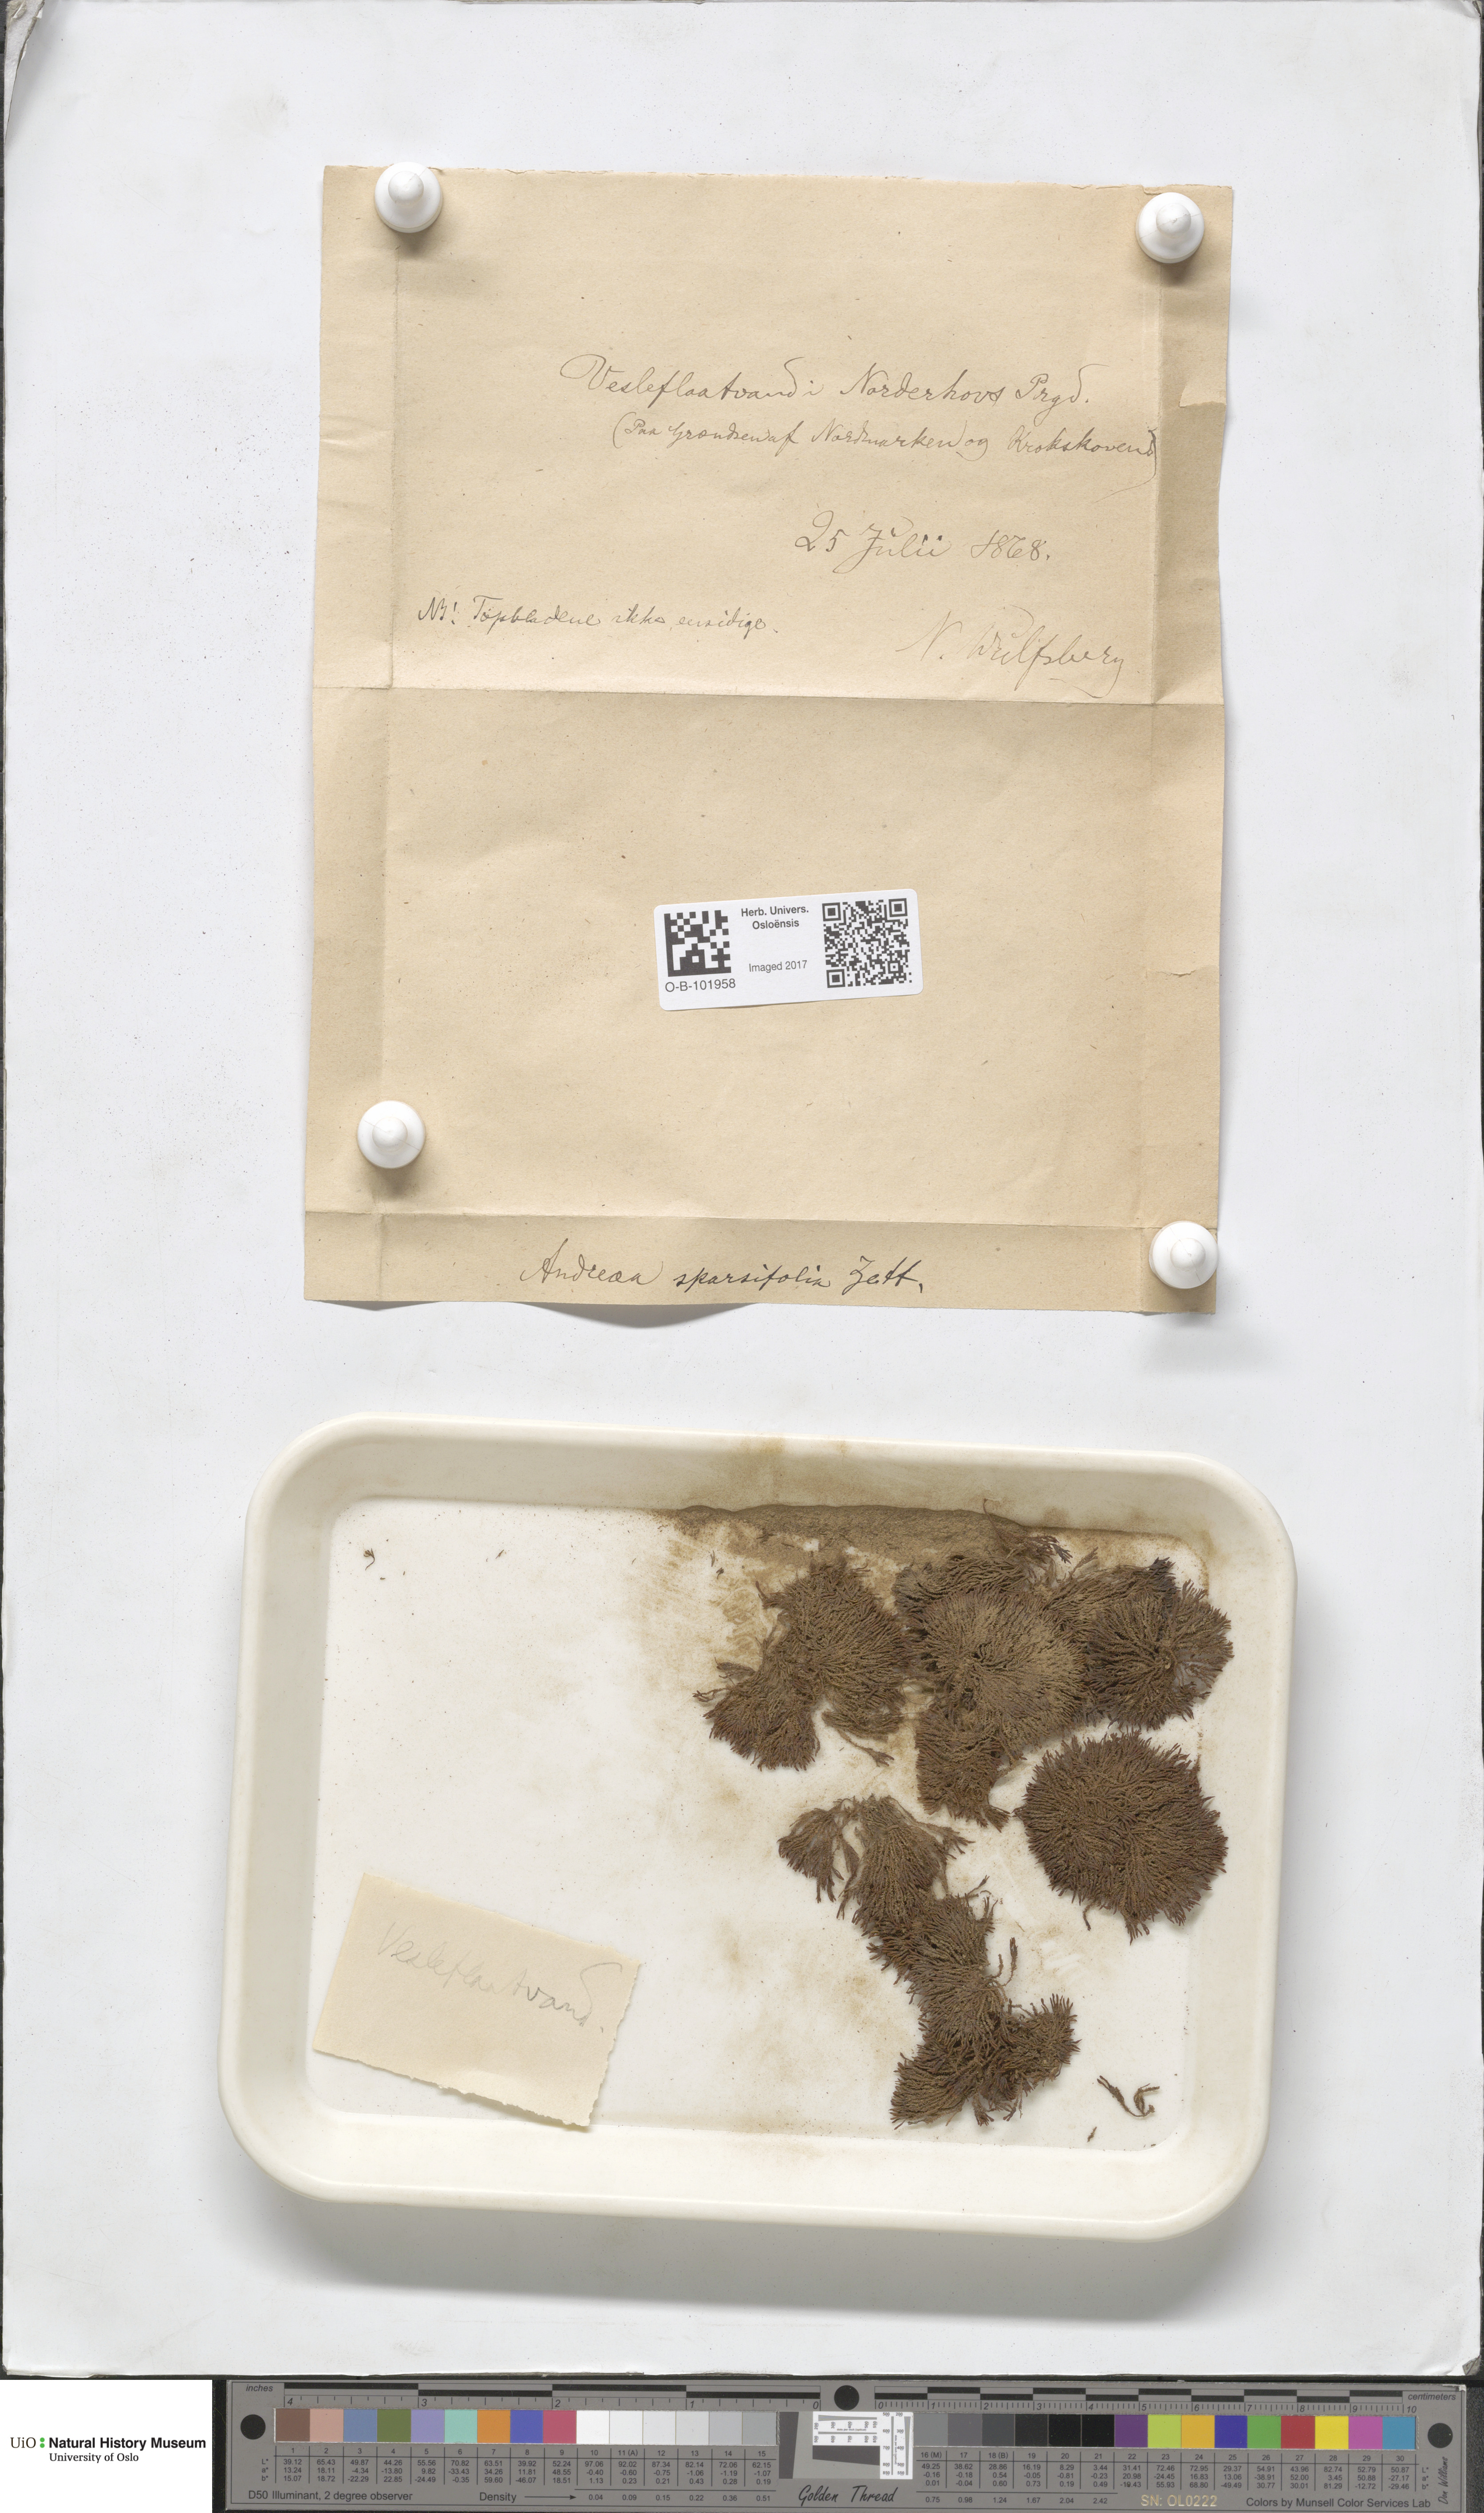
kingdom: Plantae
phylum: Bryophyta
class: Andreaeopsida
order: Andreaeales
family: Andreaeaceae
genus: Andreaea
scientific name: Andreaea rupestris
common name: Black rock moss
